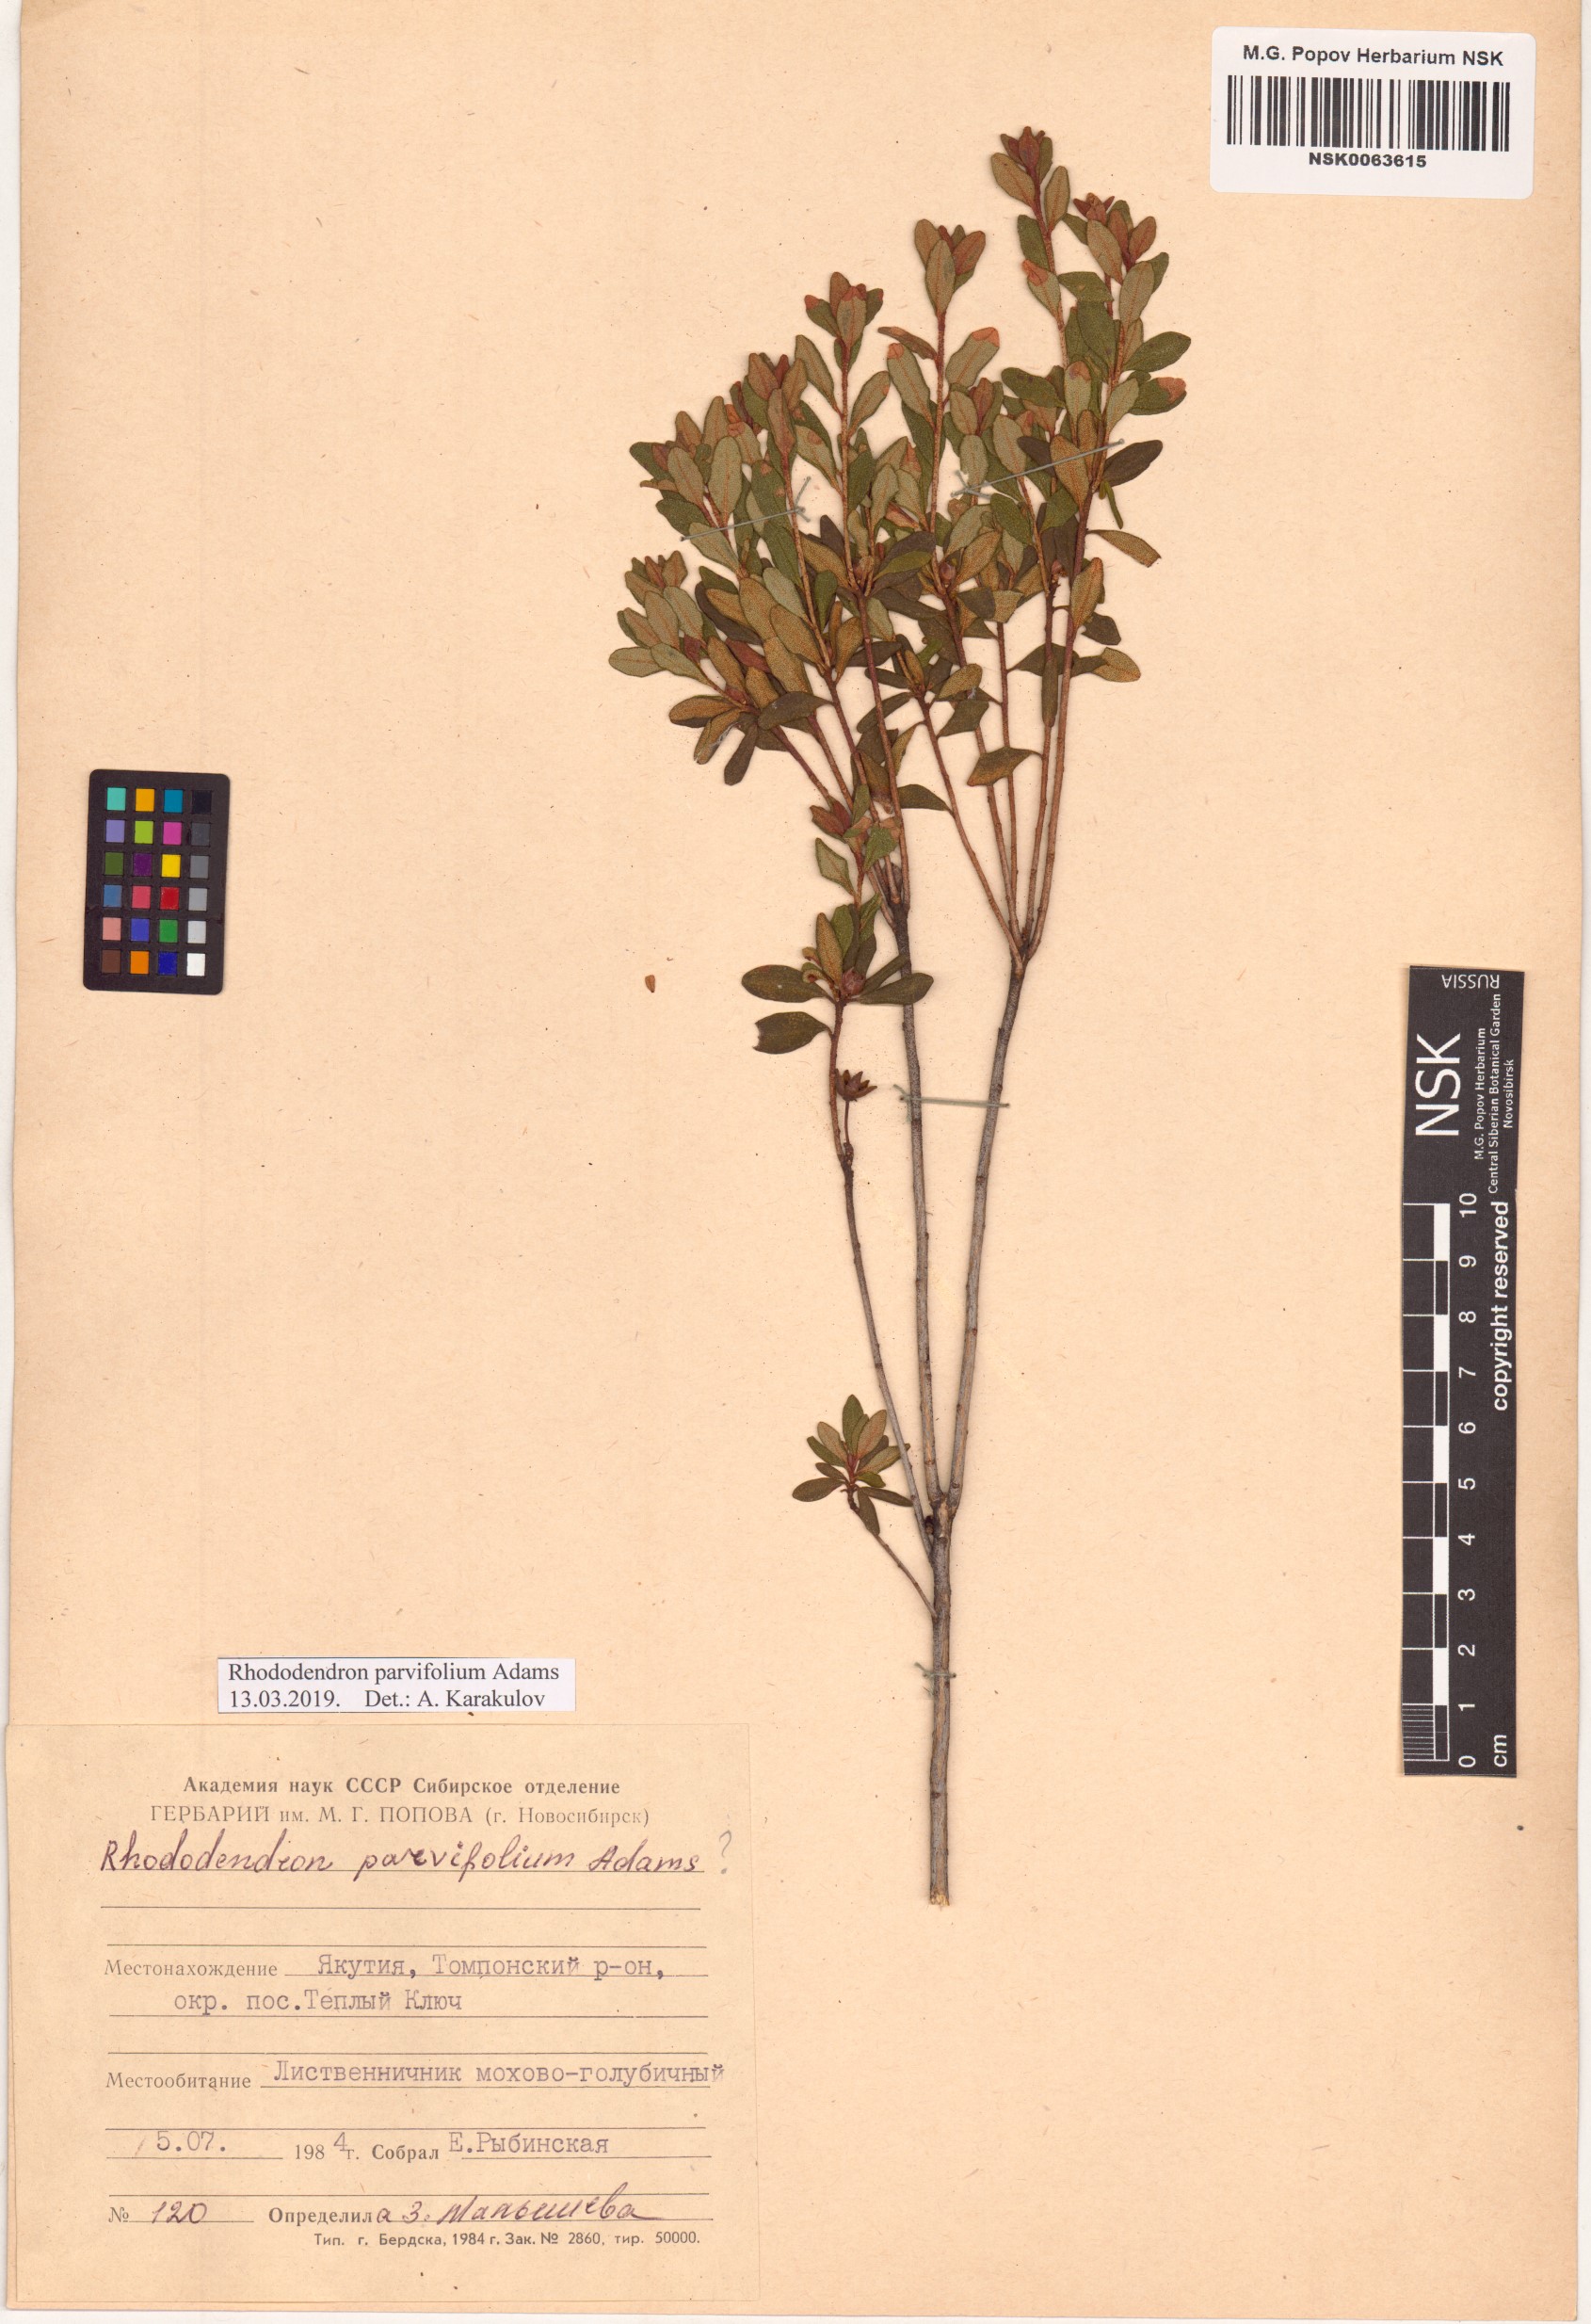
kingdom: Plantae
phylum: Tracheophyta
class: Magnoliopsida
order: Ericales
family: Ericaceae
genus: Rhododendron
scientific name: Rhododendron parvifolium
